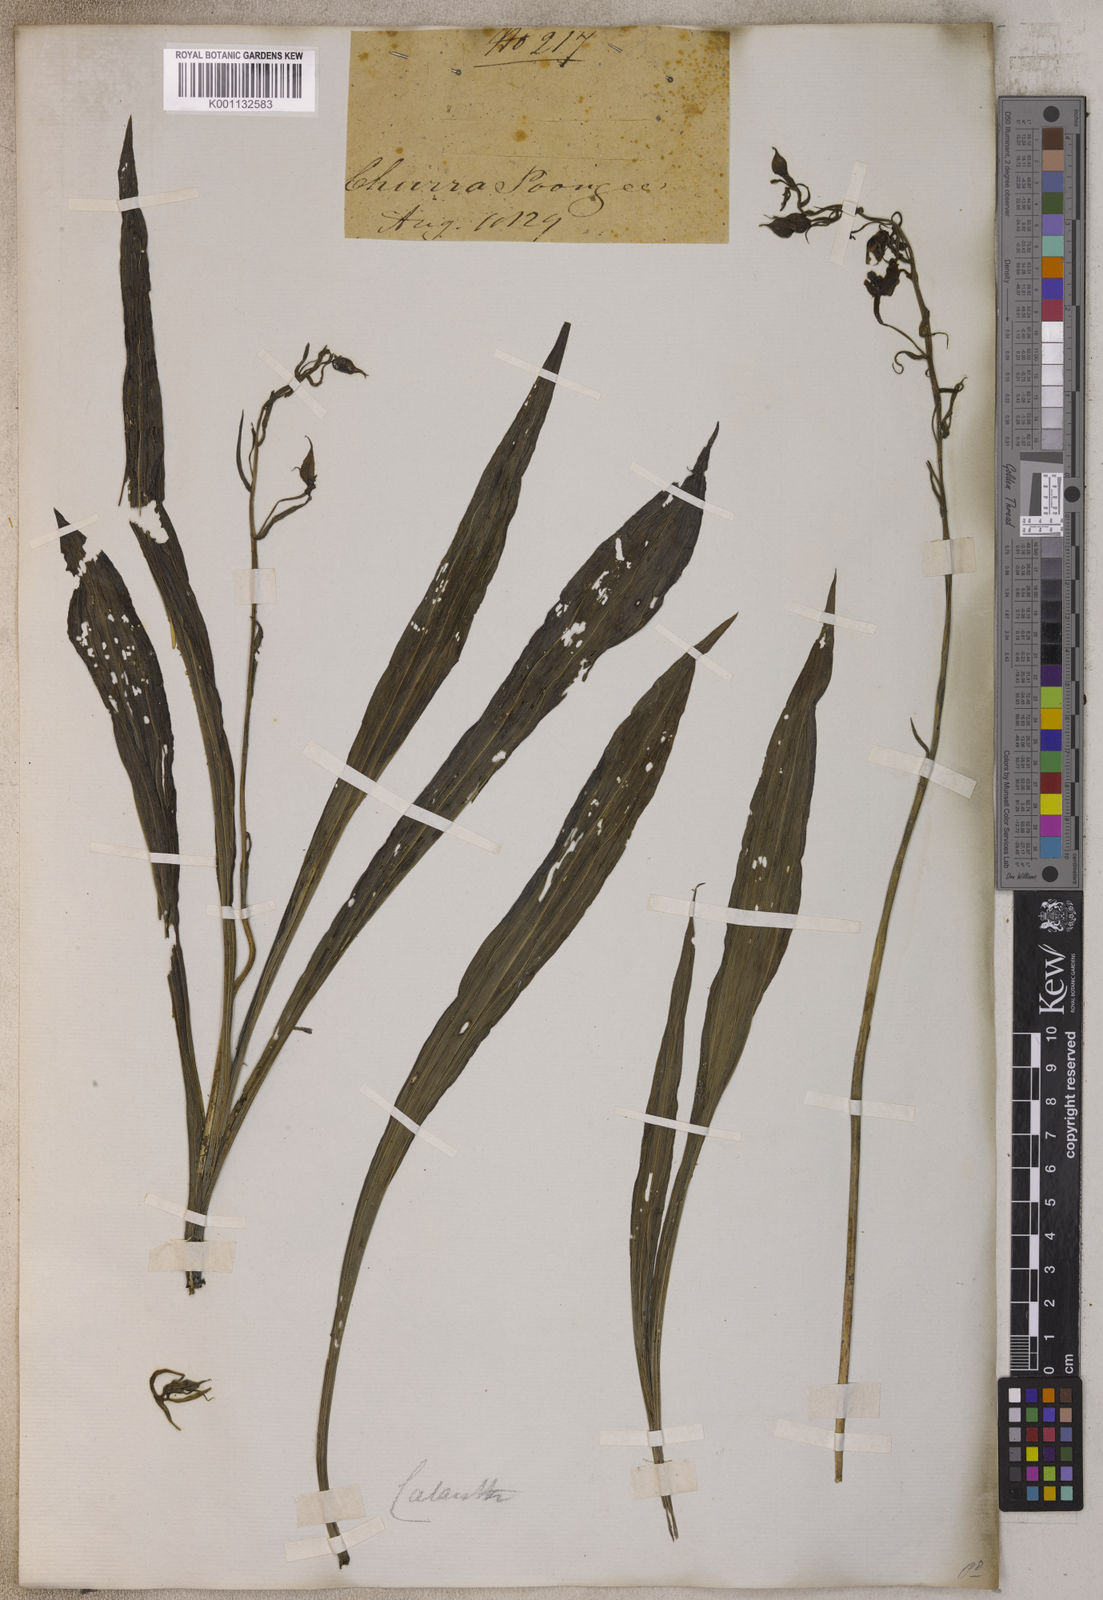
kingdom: Plantae
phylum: Tracheophyta
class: Liliopsida
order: Asparagales
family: Orchidaceae
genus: Calanthe
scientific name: Calanthe
